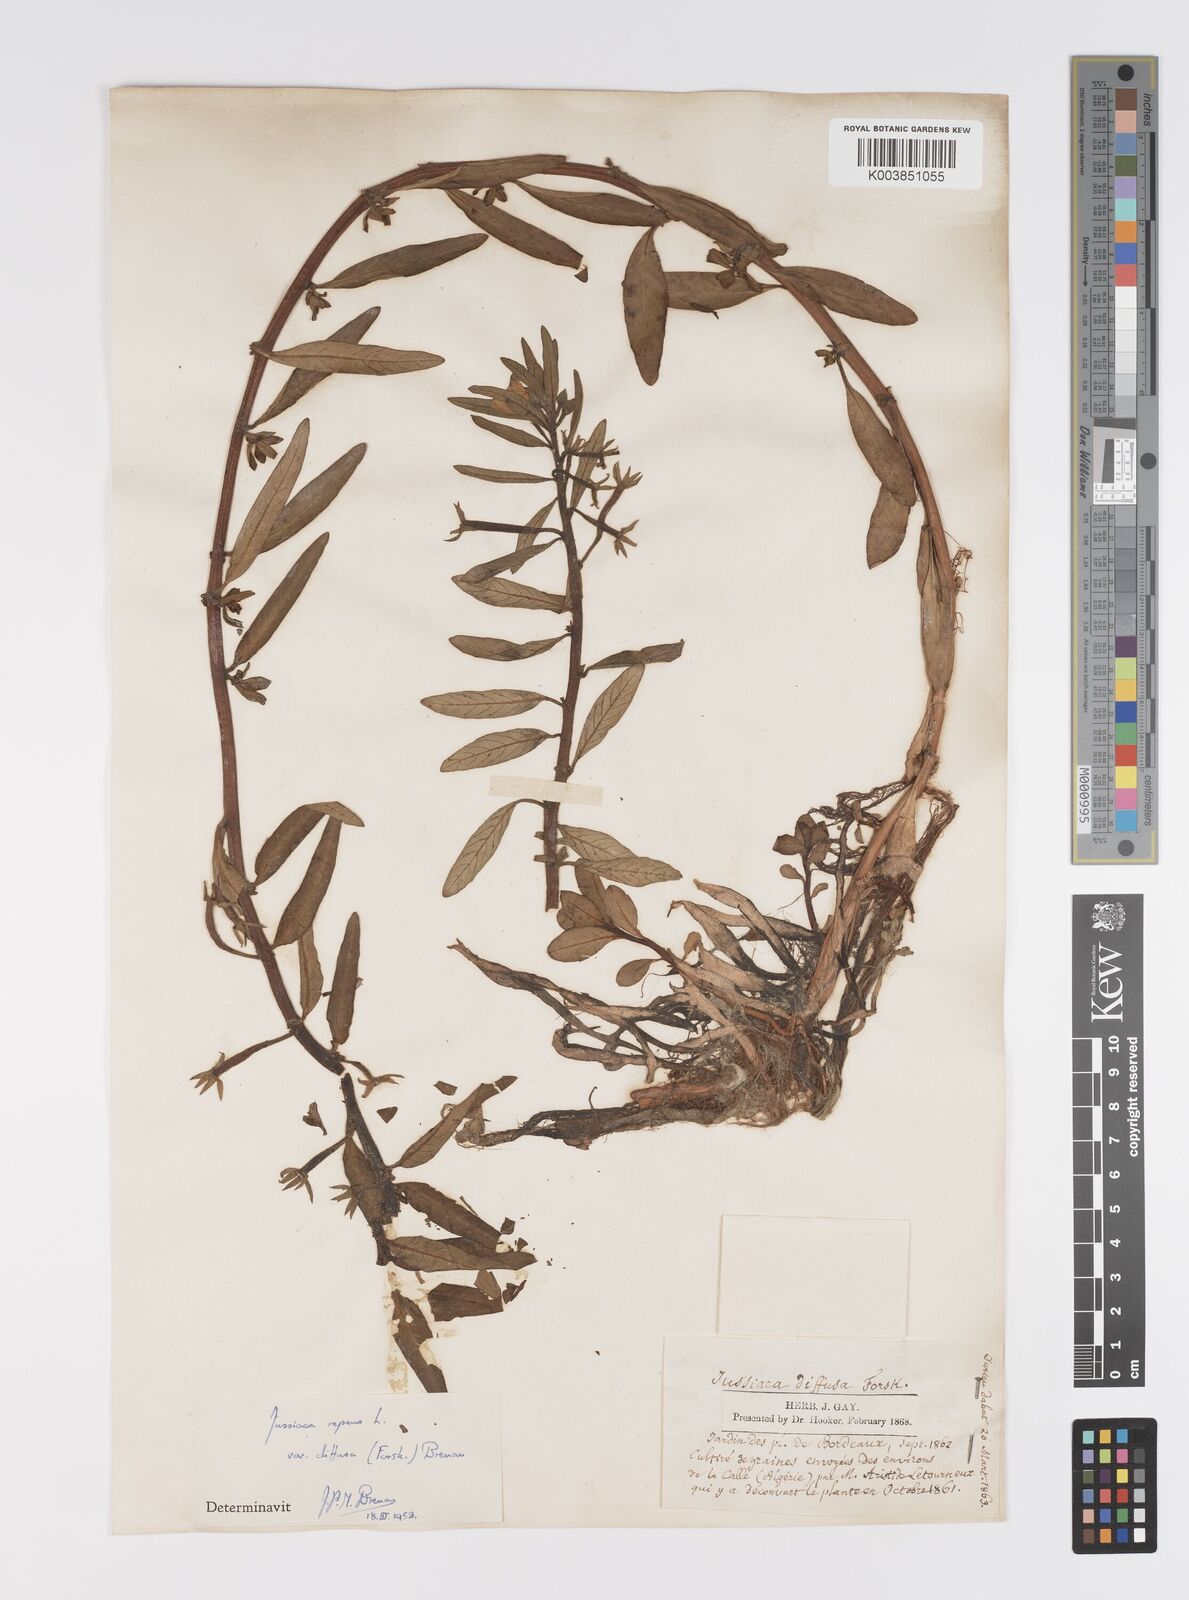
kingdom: Plantae
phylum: Tracheophyta
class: Magnoliopsida
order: Myrtales
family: Onagraceae
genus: Ludwigia
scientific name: Ludwigia adscendens
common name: Creeping water primrose
